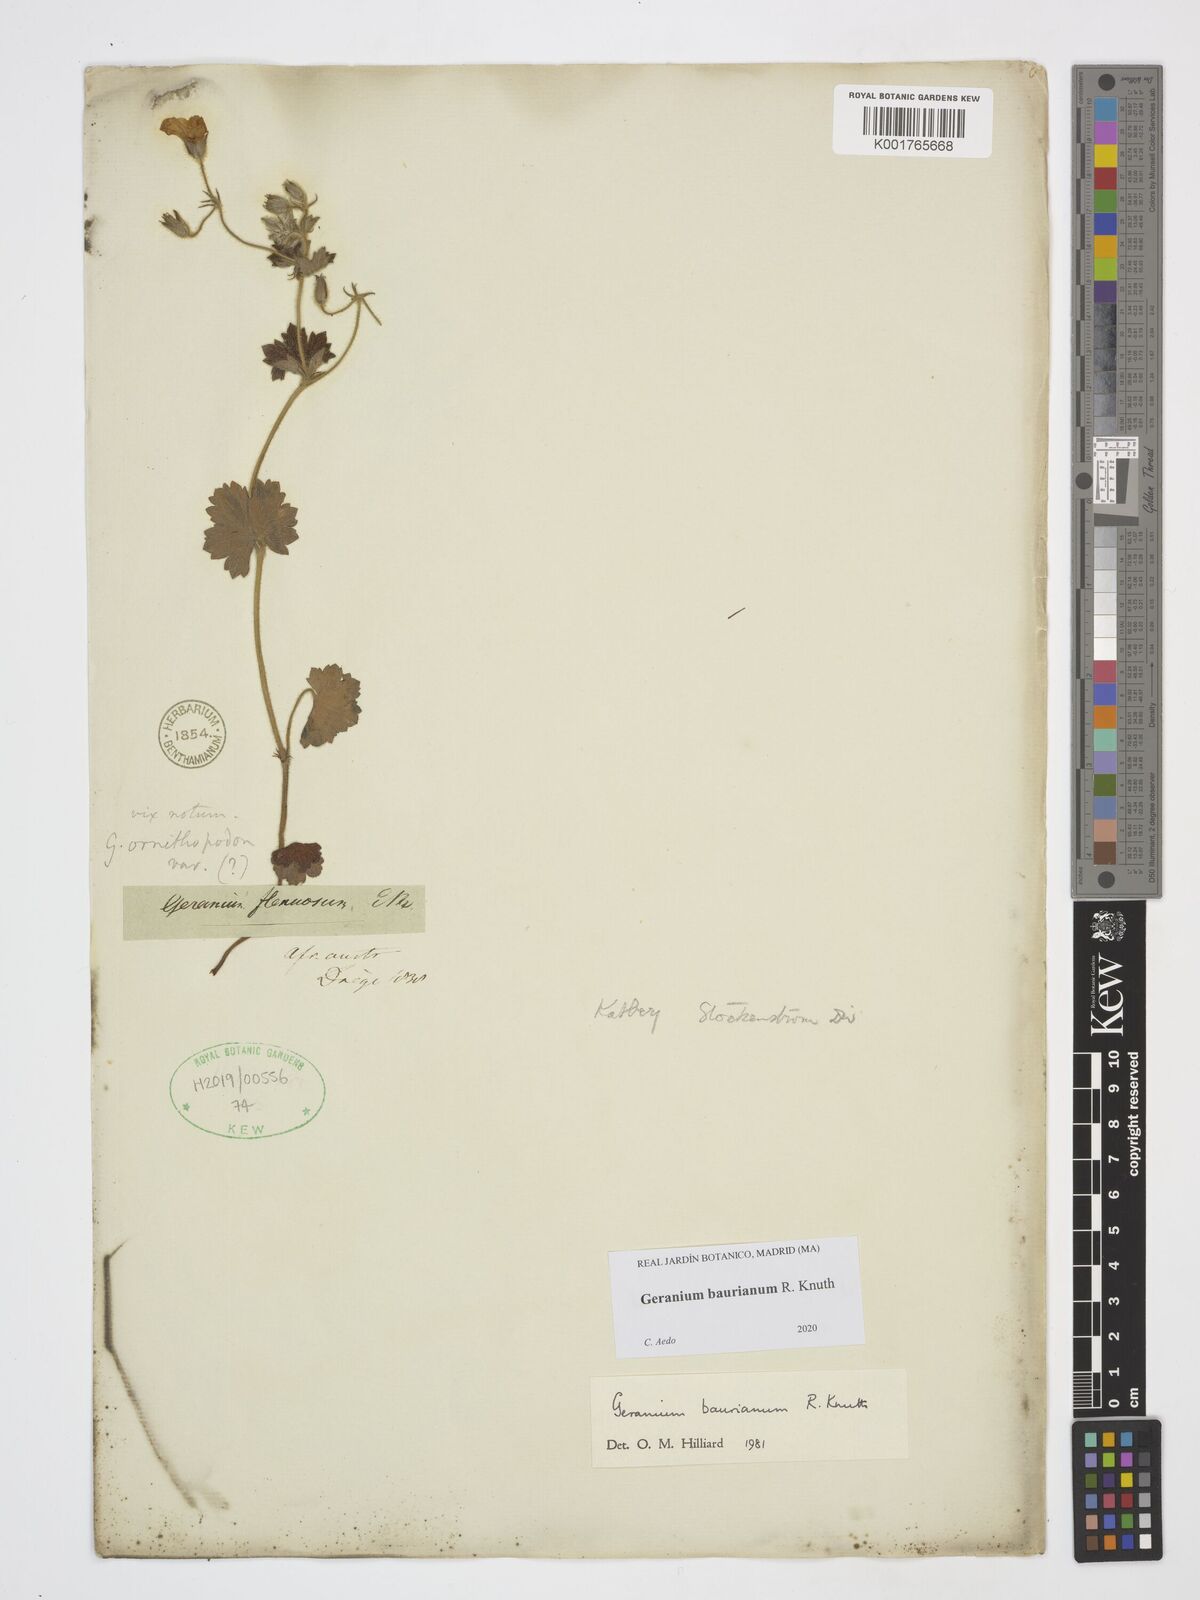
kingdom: Plantae
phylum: Tracheophyta
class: Magnoliopsida
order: Geraniales
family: Geraniaceae
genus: Geranium
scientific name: Geranium baurianum
